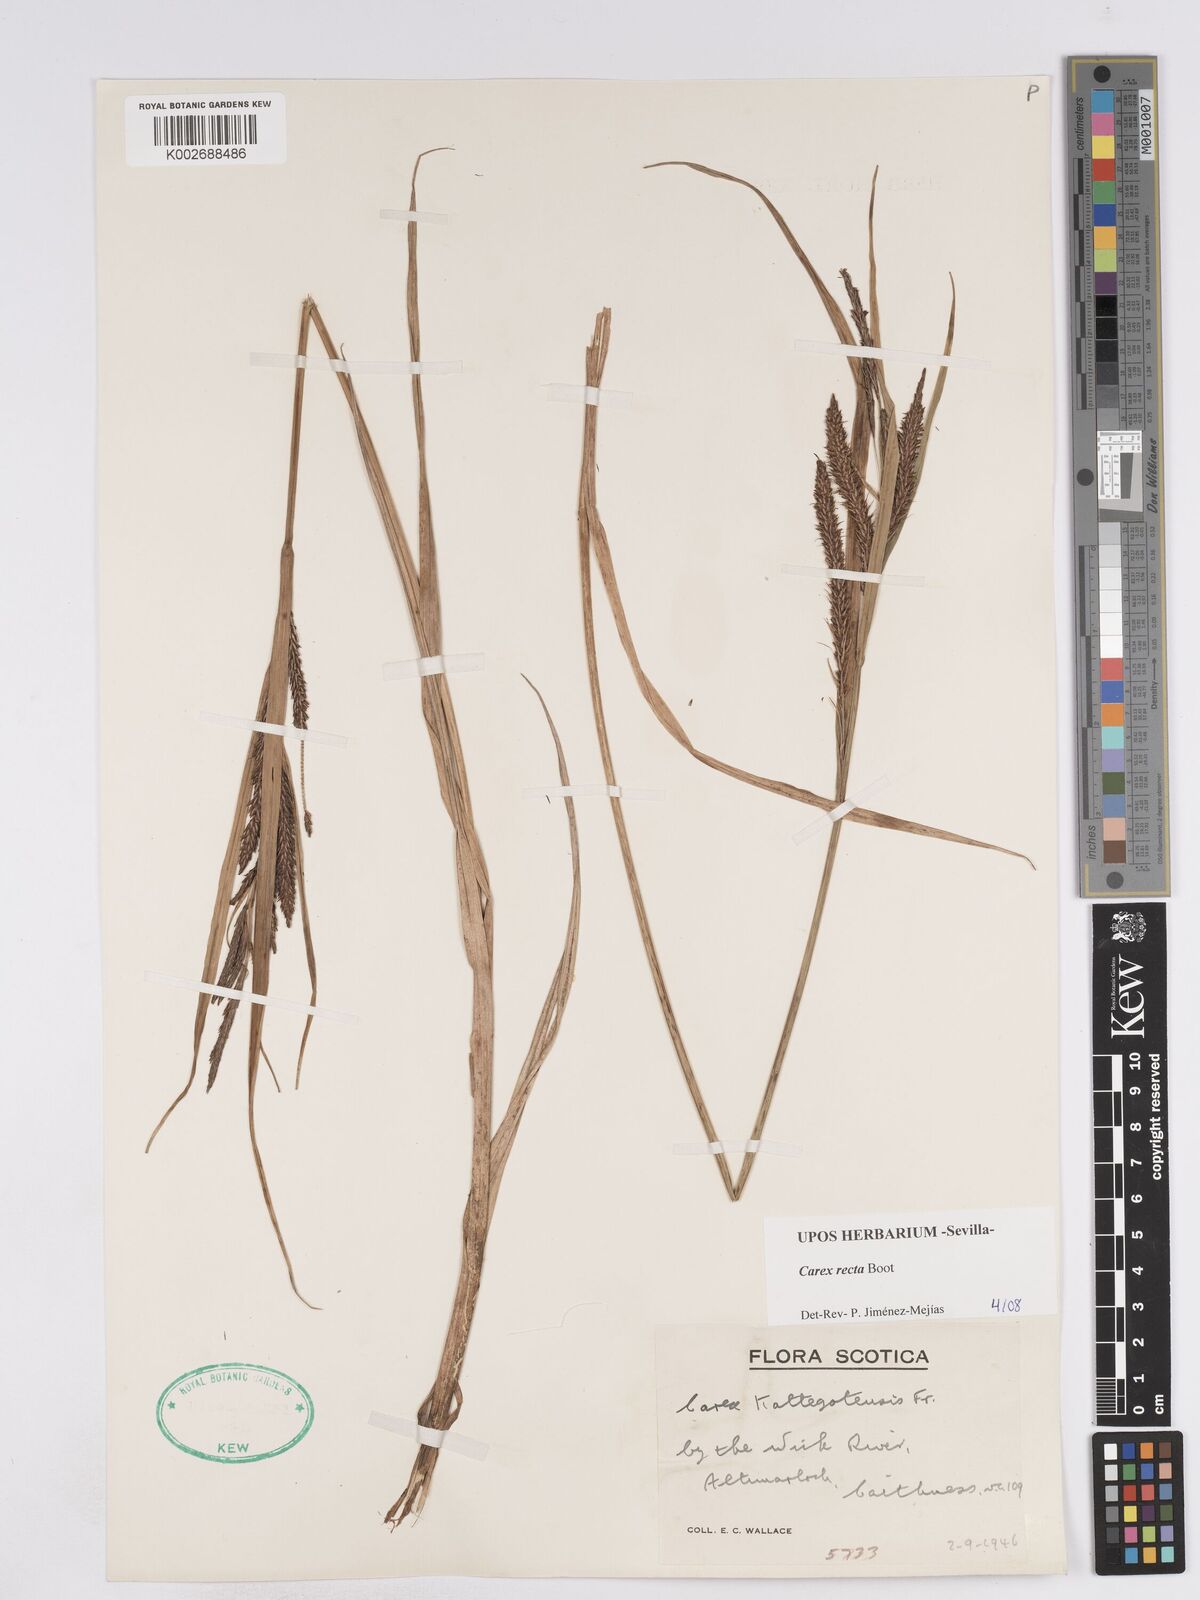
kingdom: Plantae
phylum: Tracheophyta
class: Liliopsida
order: Poales
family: Cyperaceae
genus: Carex
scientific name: Carex recta
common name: Estuarine sedge
